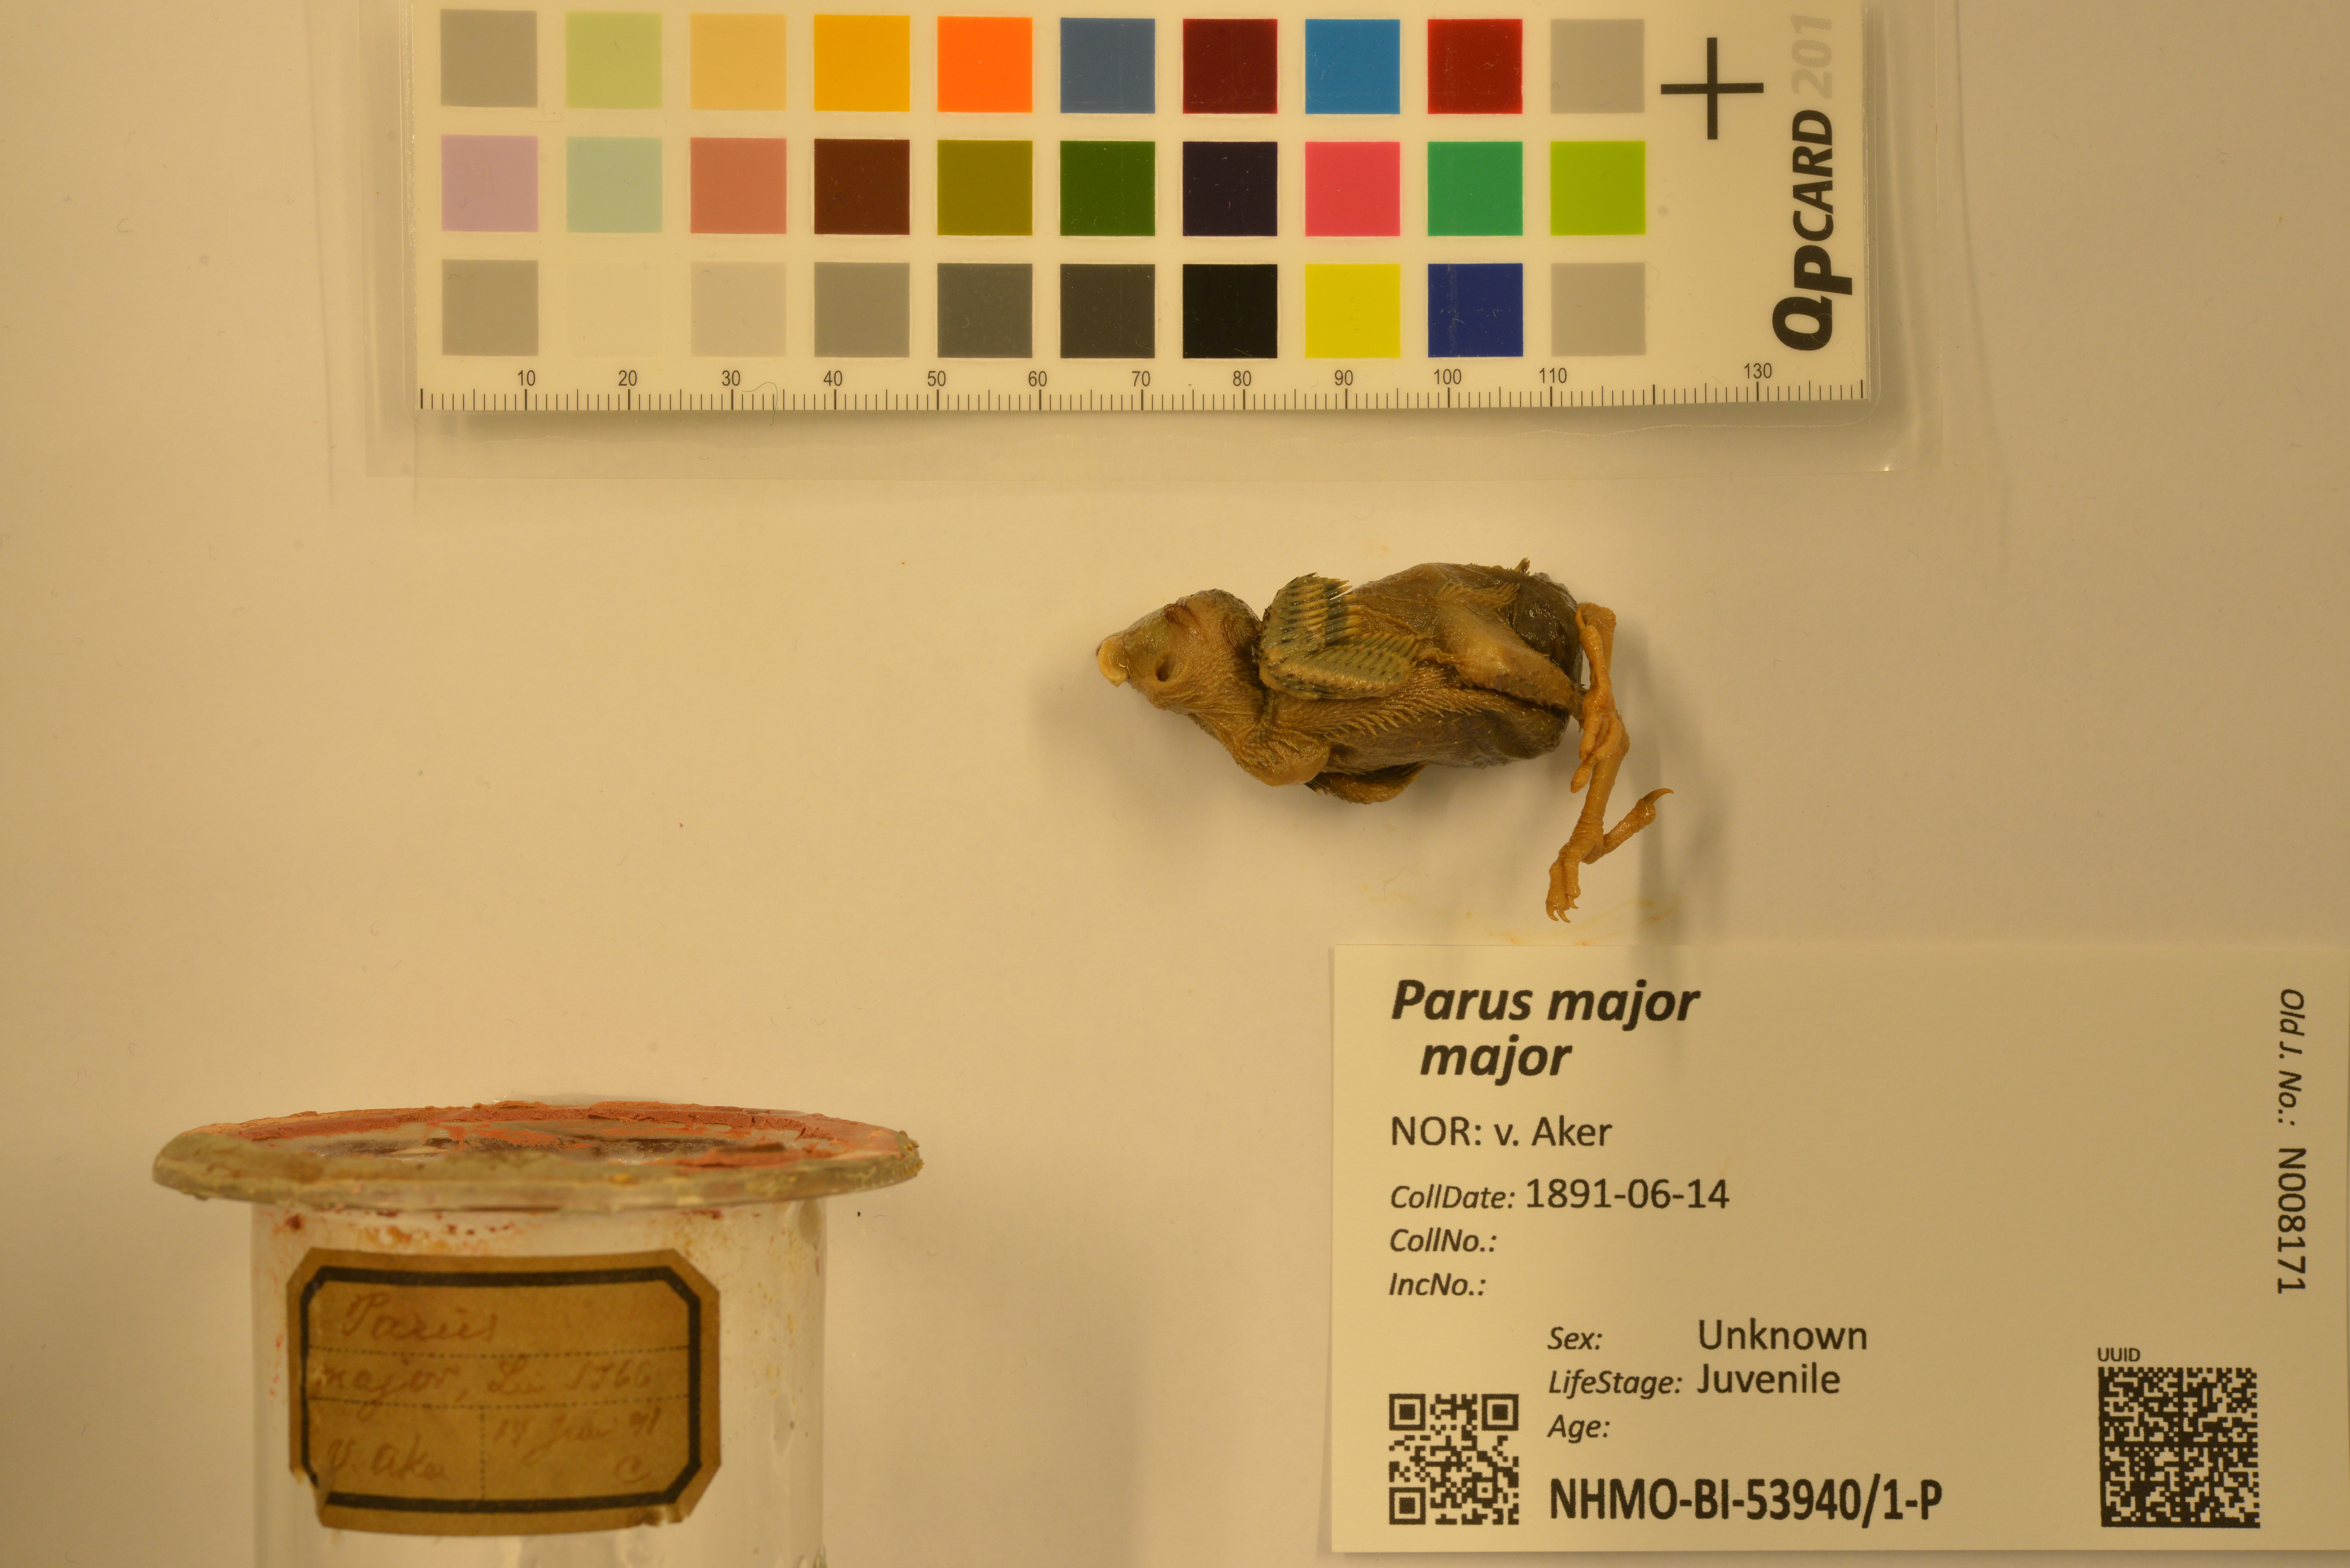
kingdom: Animalia
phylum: Chordata
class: Aves
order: Passeriformes
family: Paridae
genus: Parus
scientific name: Parus major
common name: Great tit
